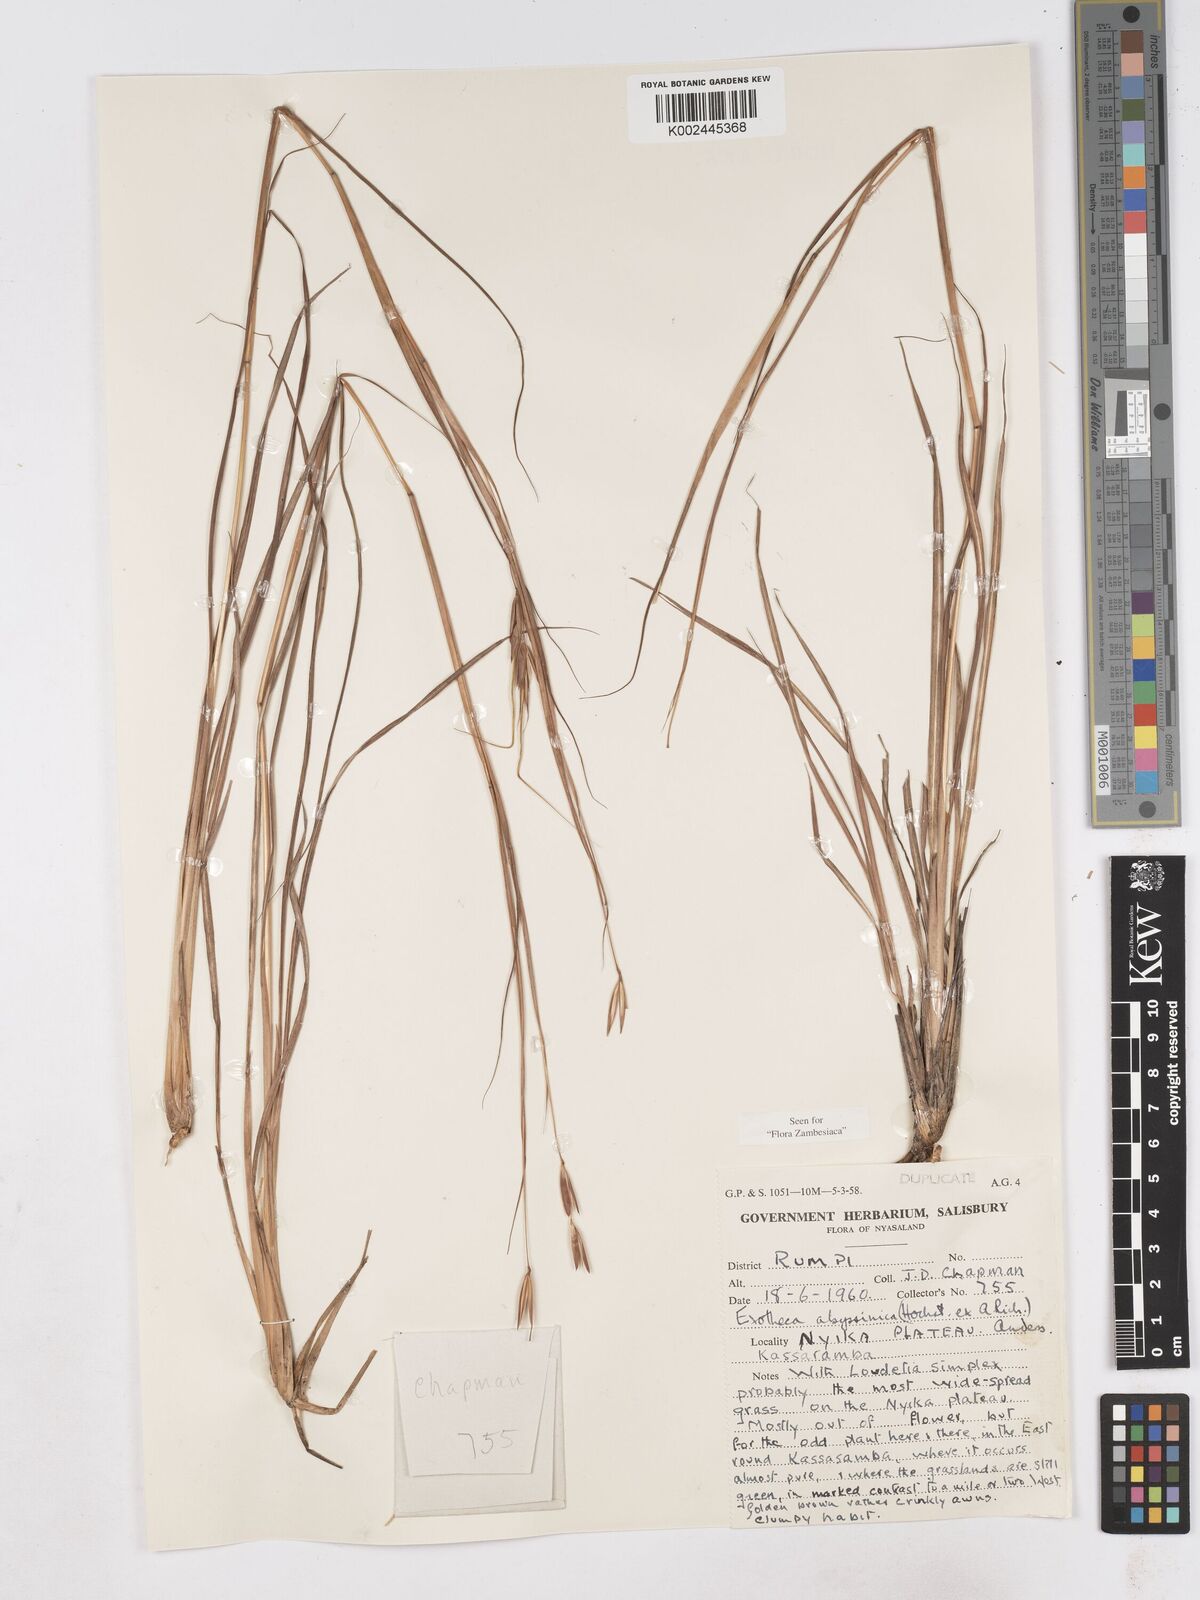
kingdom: Plantae
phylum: Tracheophyta
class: Liliopsida
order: Poales
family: Poaceae
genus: Exotheca
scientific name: Exotheca abyssinica
